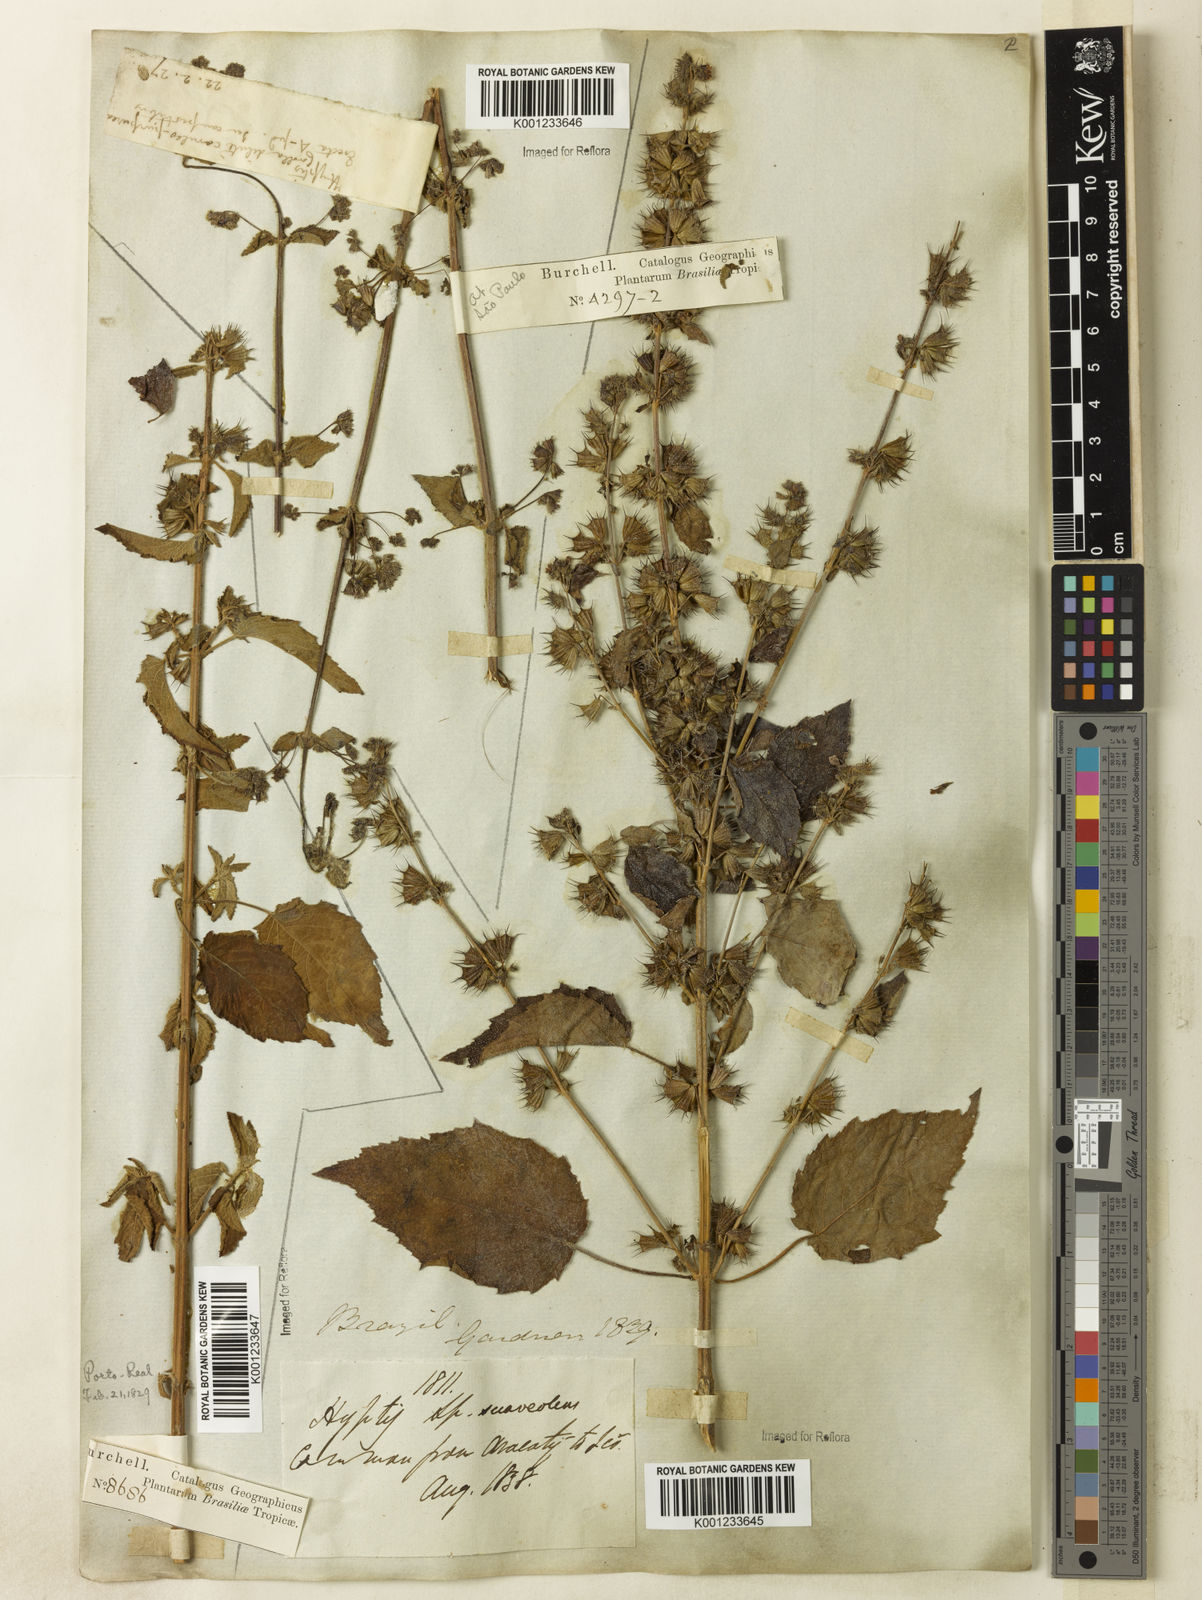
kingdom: Plantae
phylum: Tracheophyta
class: Magnoliopsida
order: Lamiales
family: Lamiaceae
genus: Mesosphaerum
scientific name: Mesosphaerum suaveolens
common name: Pignut
